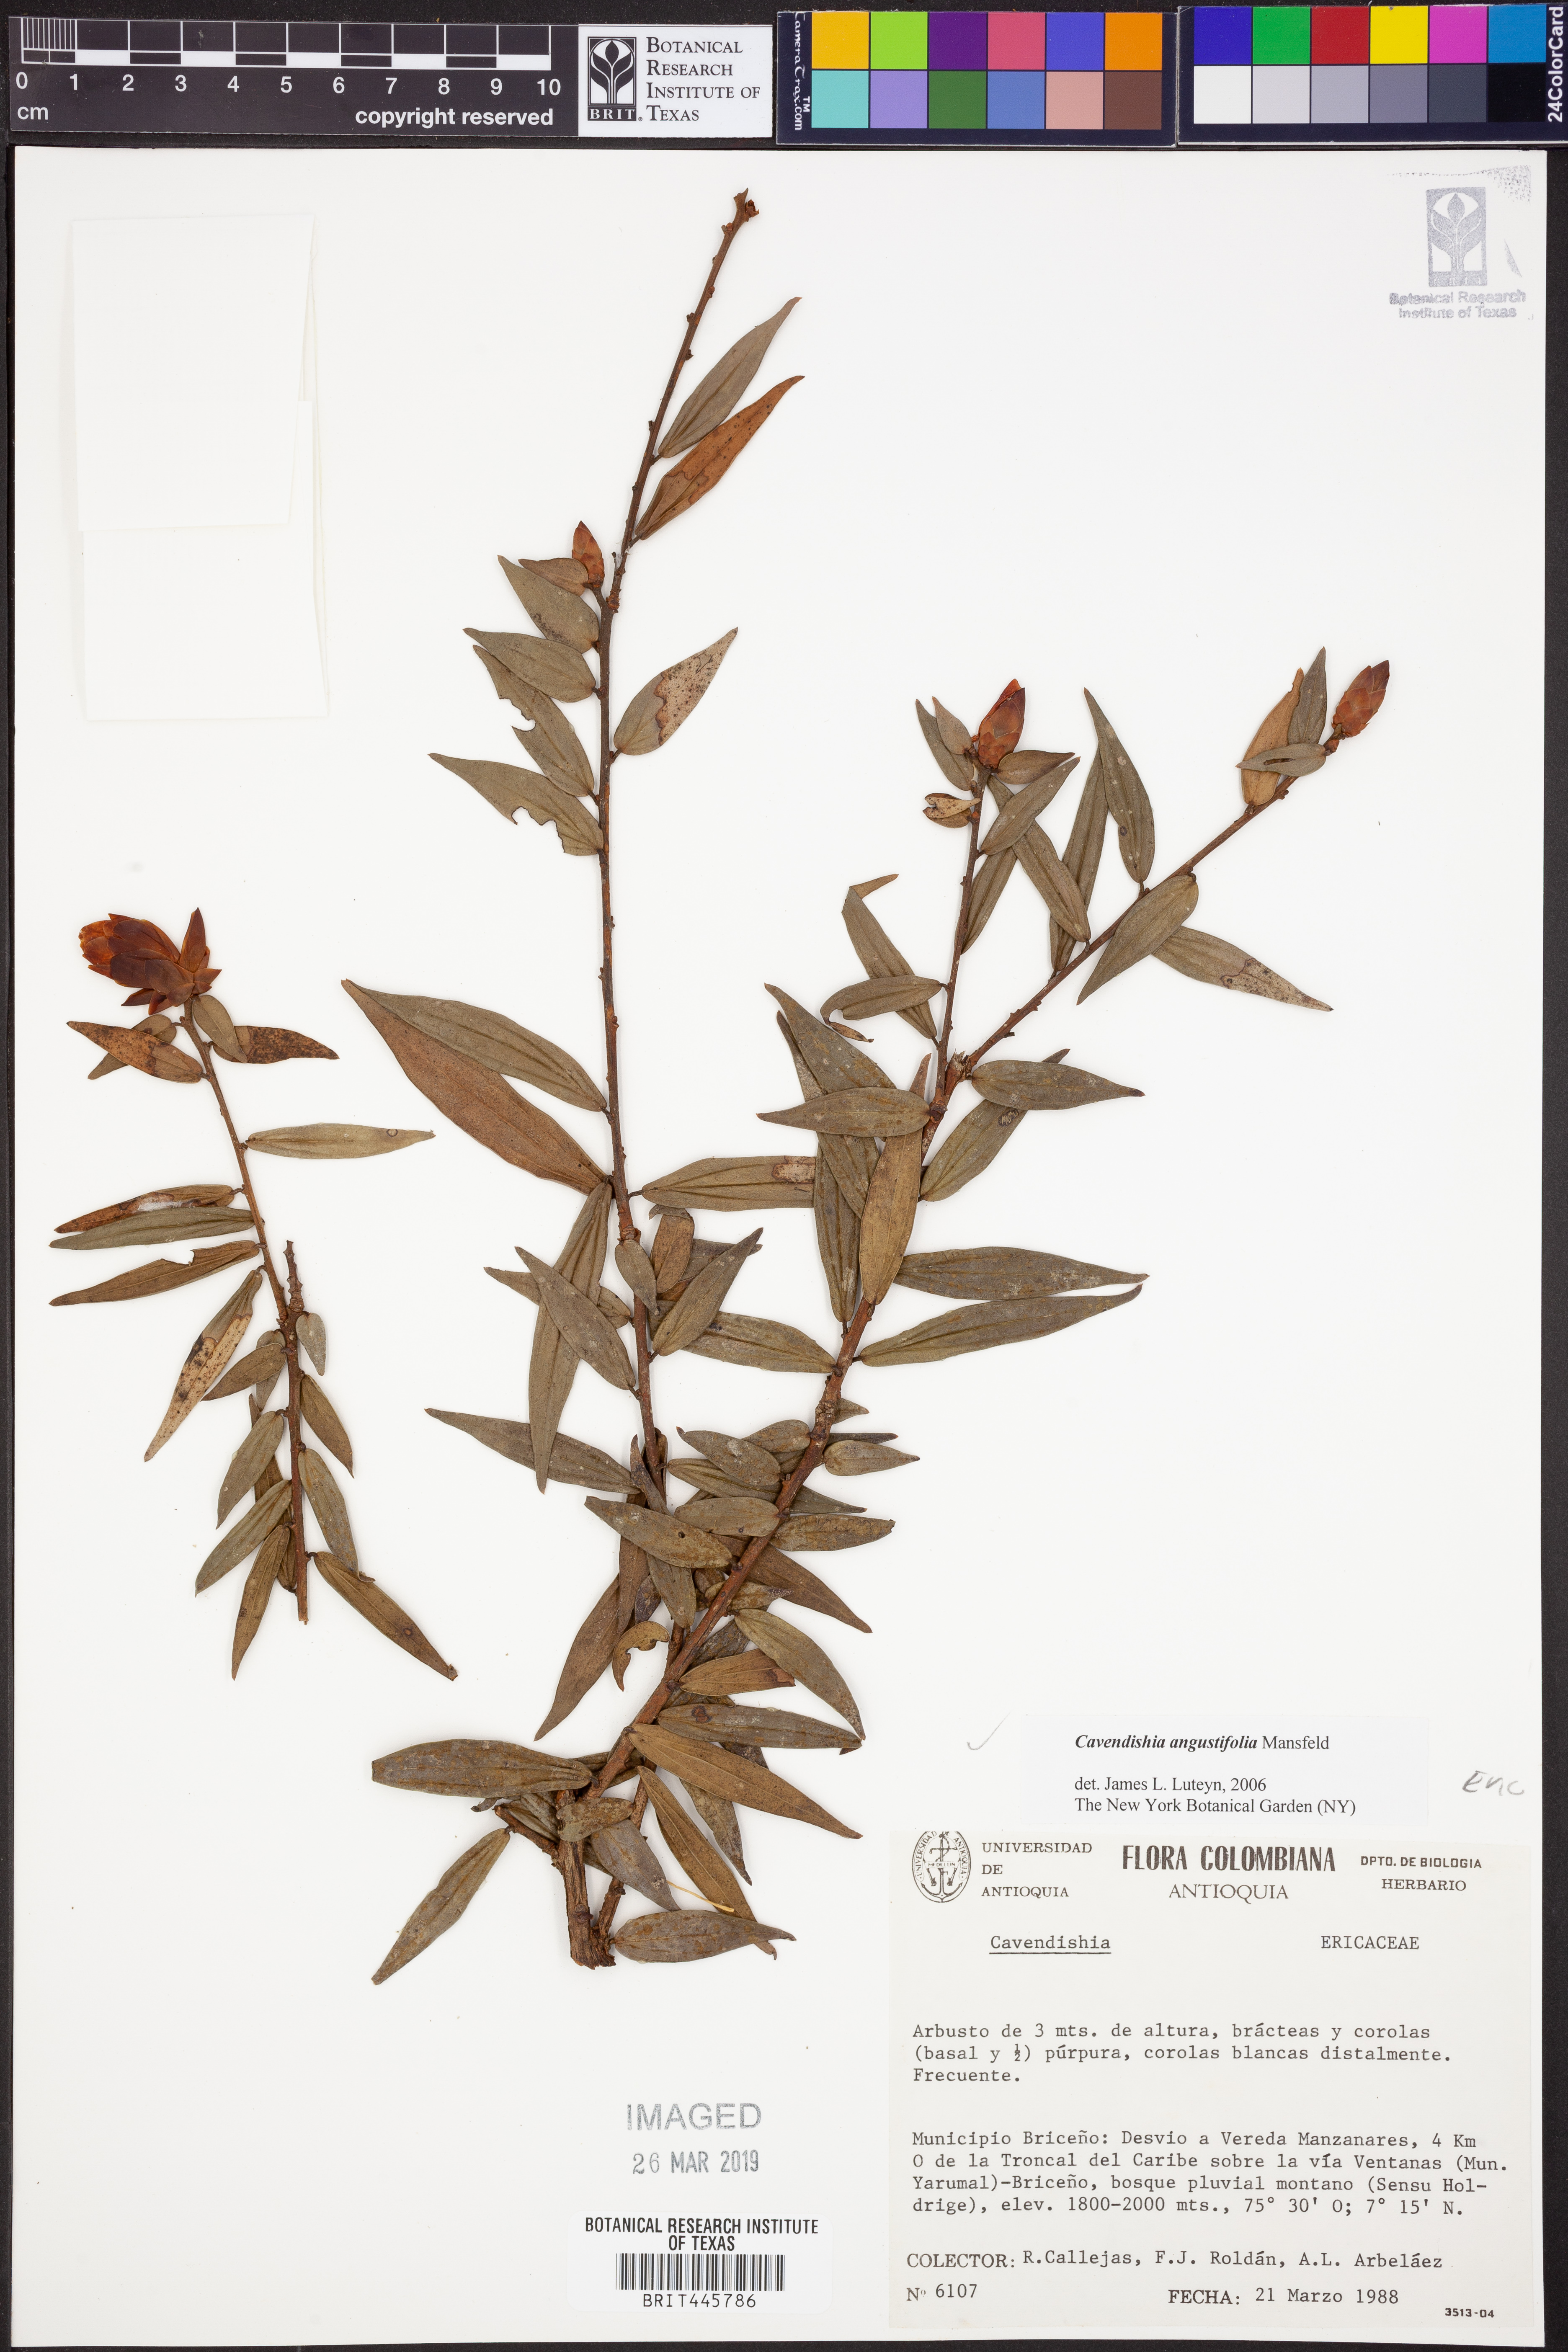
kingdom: Plantae
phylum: Tracheophyta
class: Magnoliopsida
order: Ericales
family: Ericaceae
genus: Cavendishia
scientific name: Cavendishia angustifolia
